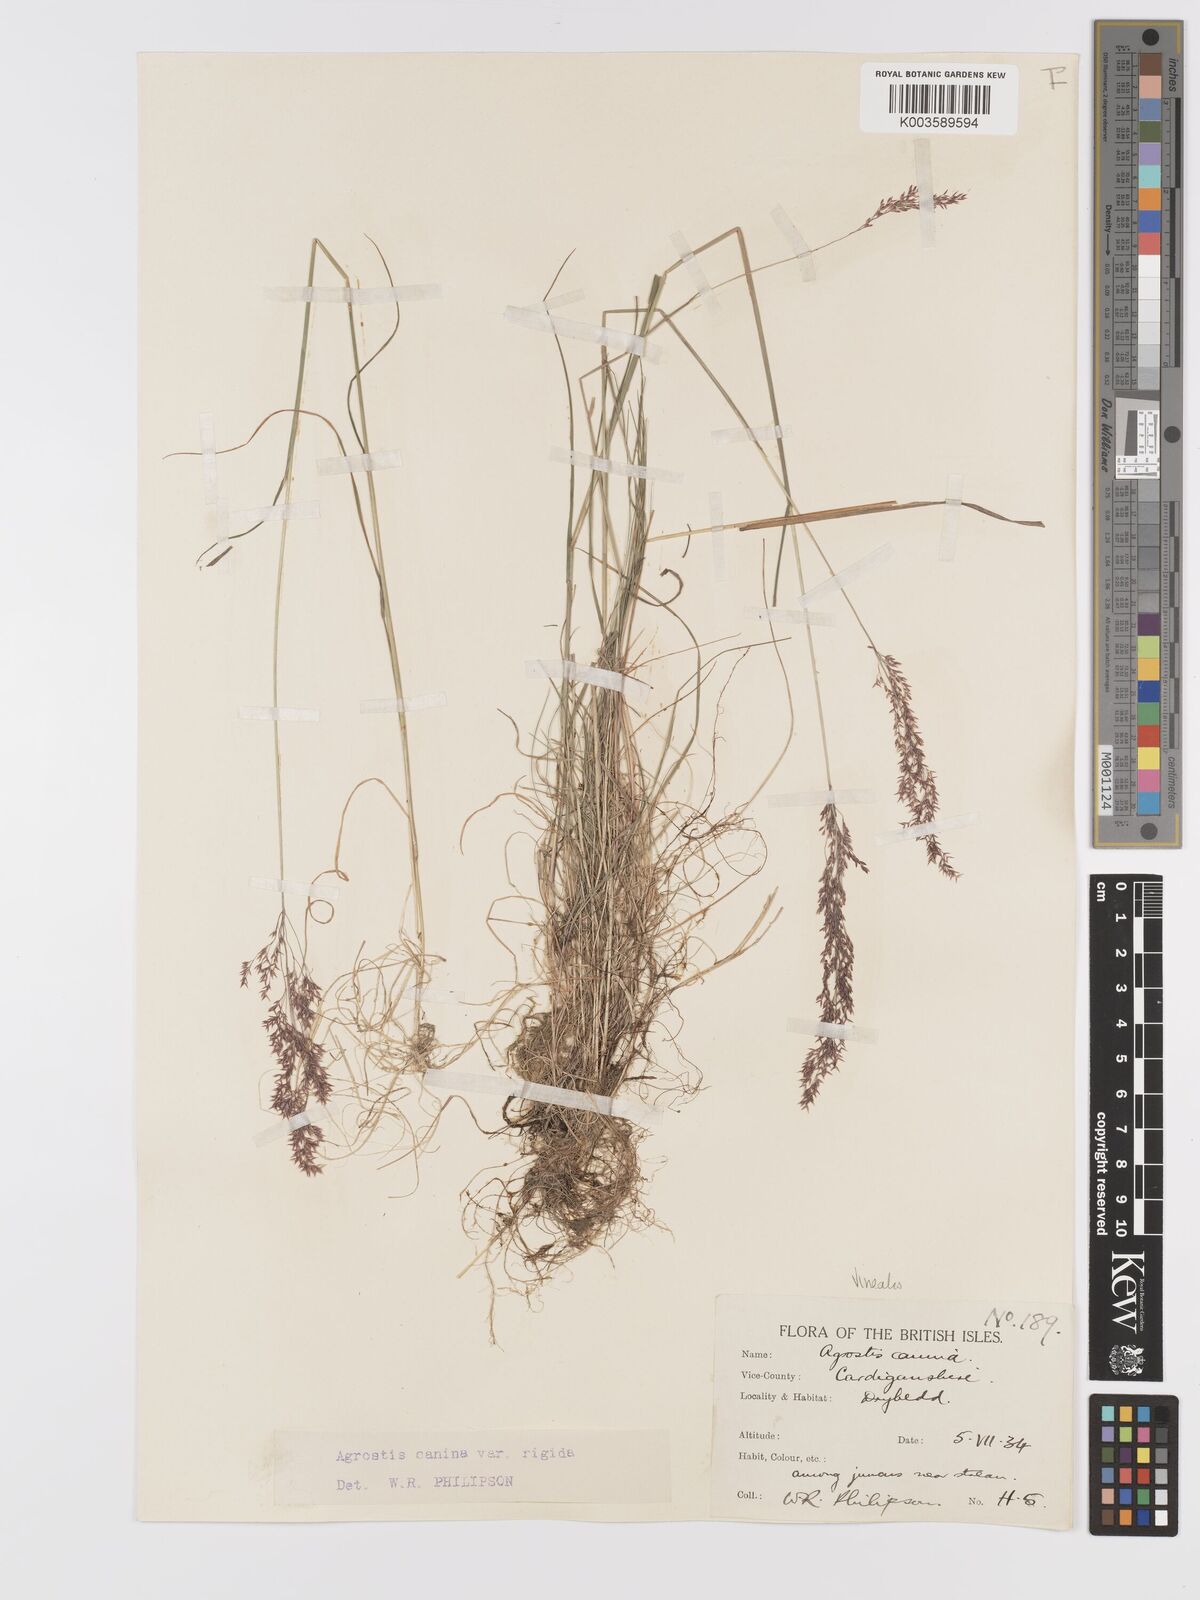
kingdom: Plantae
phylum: Tracheophyta
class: Liliopsida
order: Poales
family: Poaceae
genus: Agrostis
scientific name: Agrostis
